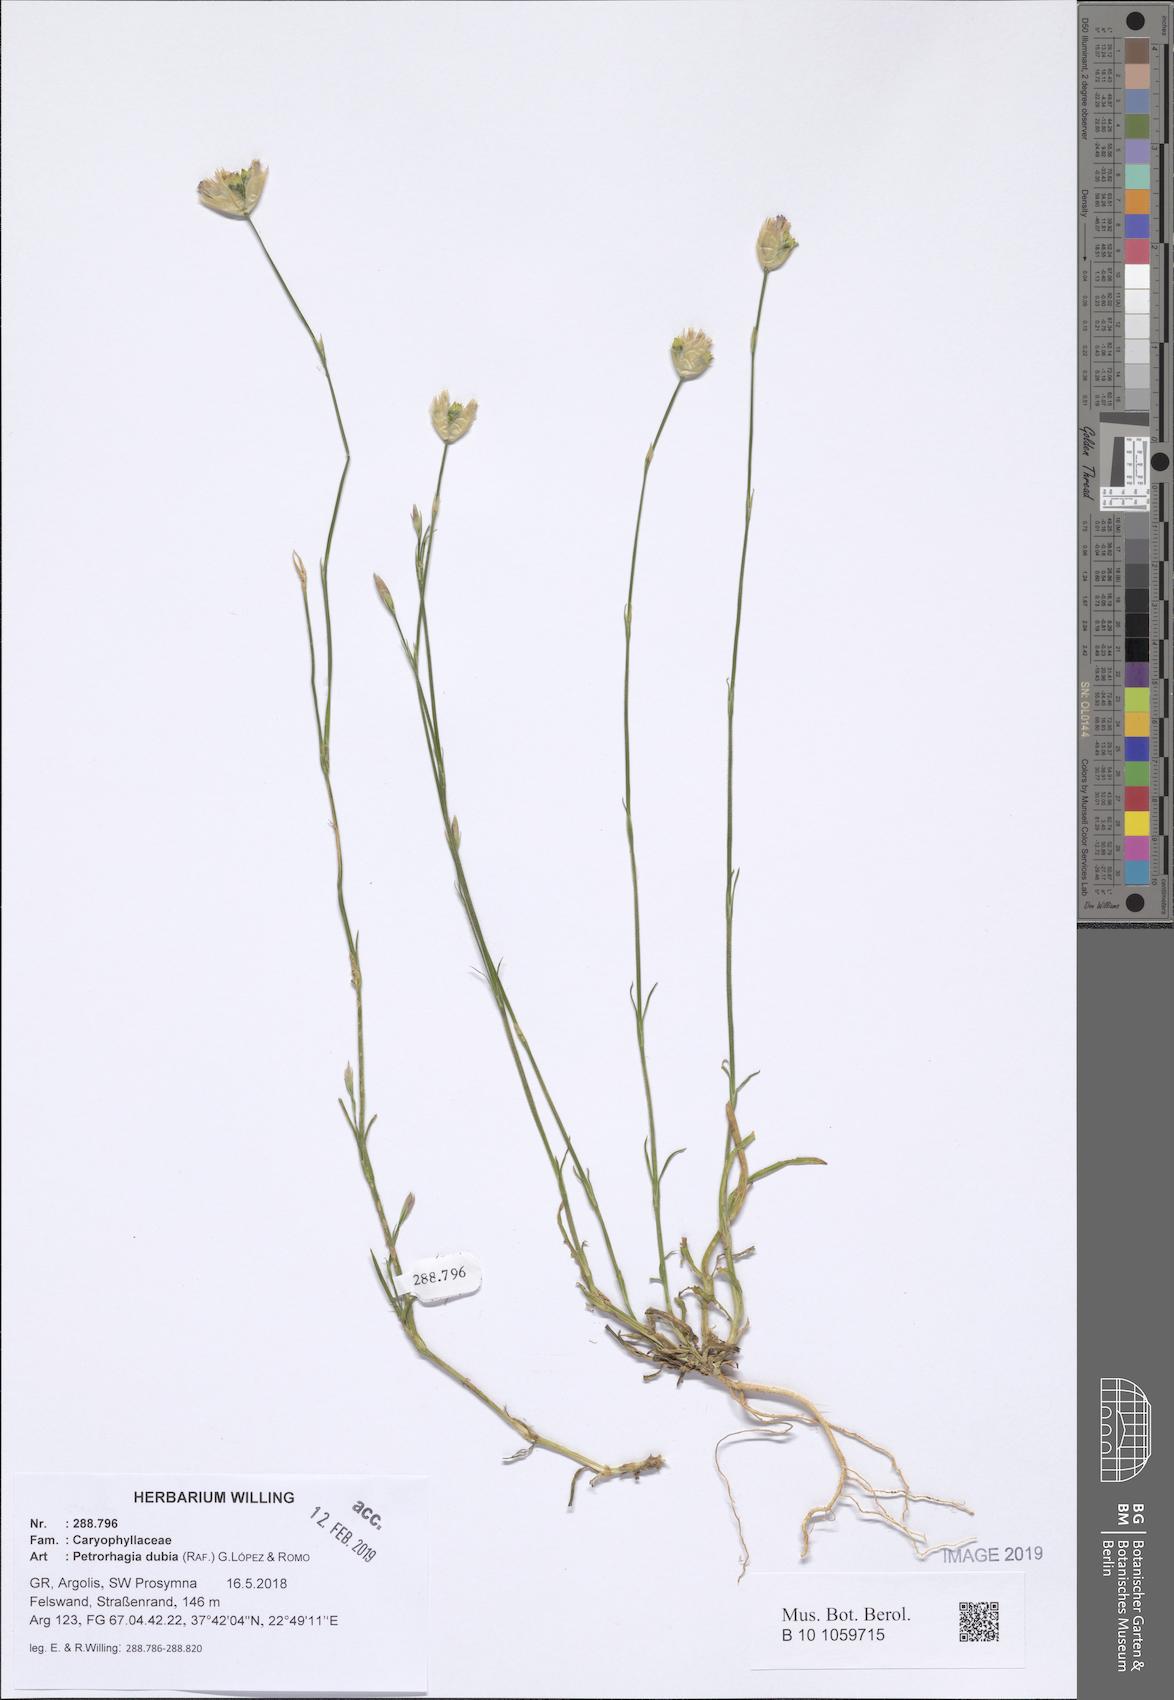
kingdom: Plantae
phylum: Tracheophyta
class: Magnoliopsida
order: Caryophyllales
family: Caryophyllaceae
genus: Petrorhagia
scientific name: Petrorhagia dubia
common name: Hairypink
